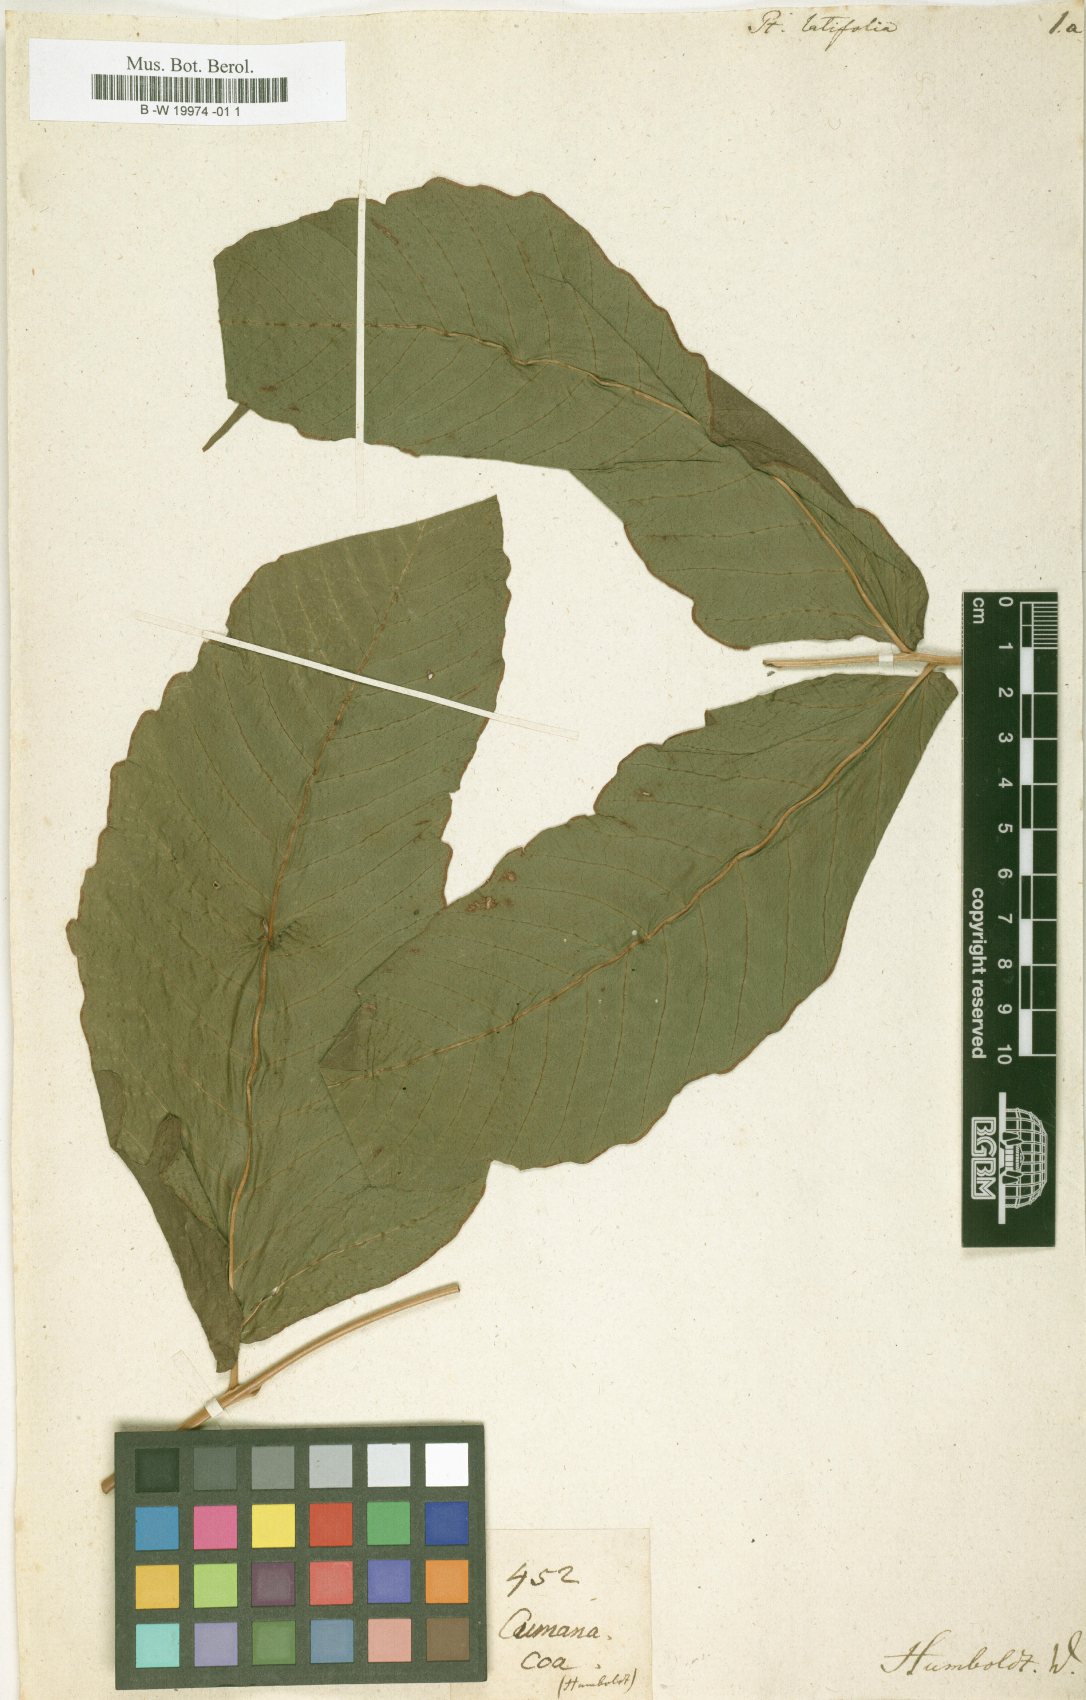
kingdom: Plantae
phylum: Tracheophyta
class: Polypodiopsida
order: Polypodiales
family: Tectariaceae
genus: Tectaria
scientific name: Tectaria amphiblestra
